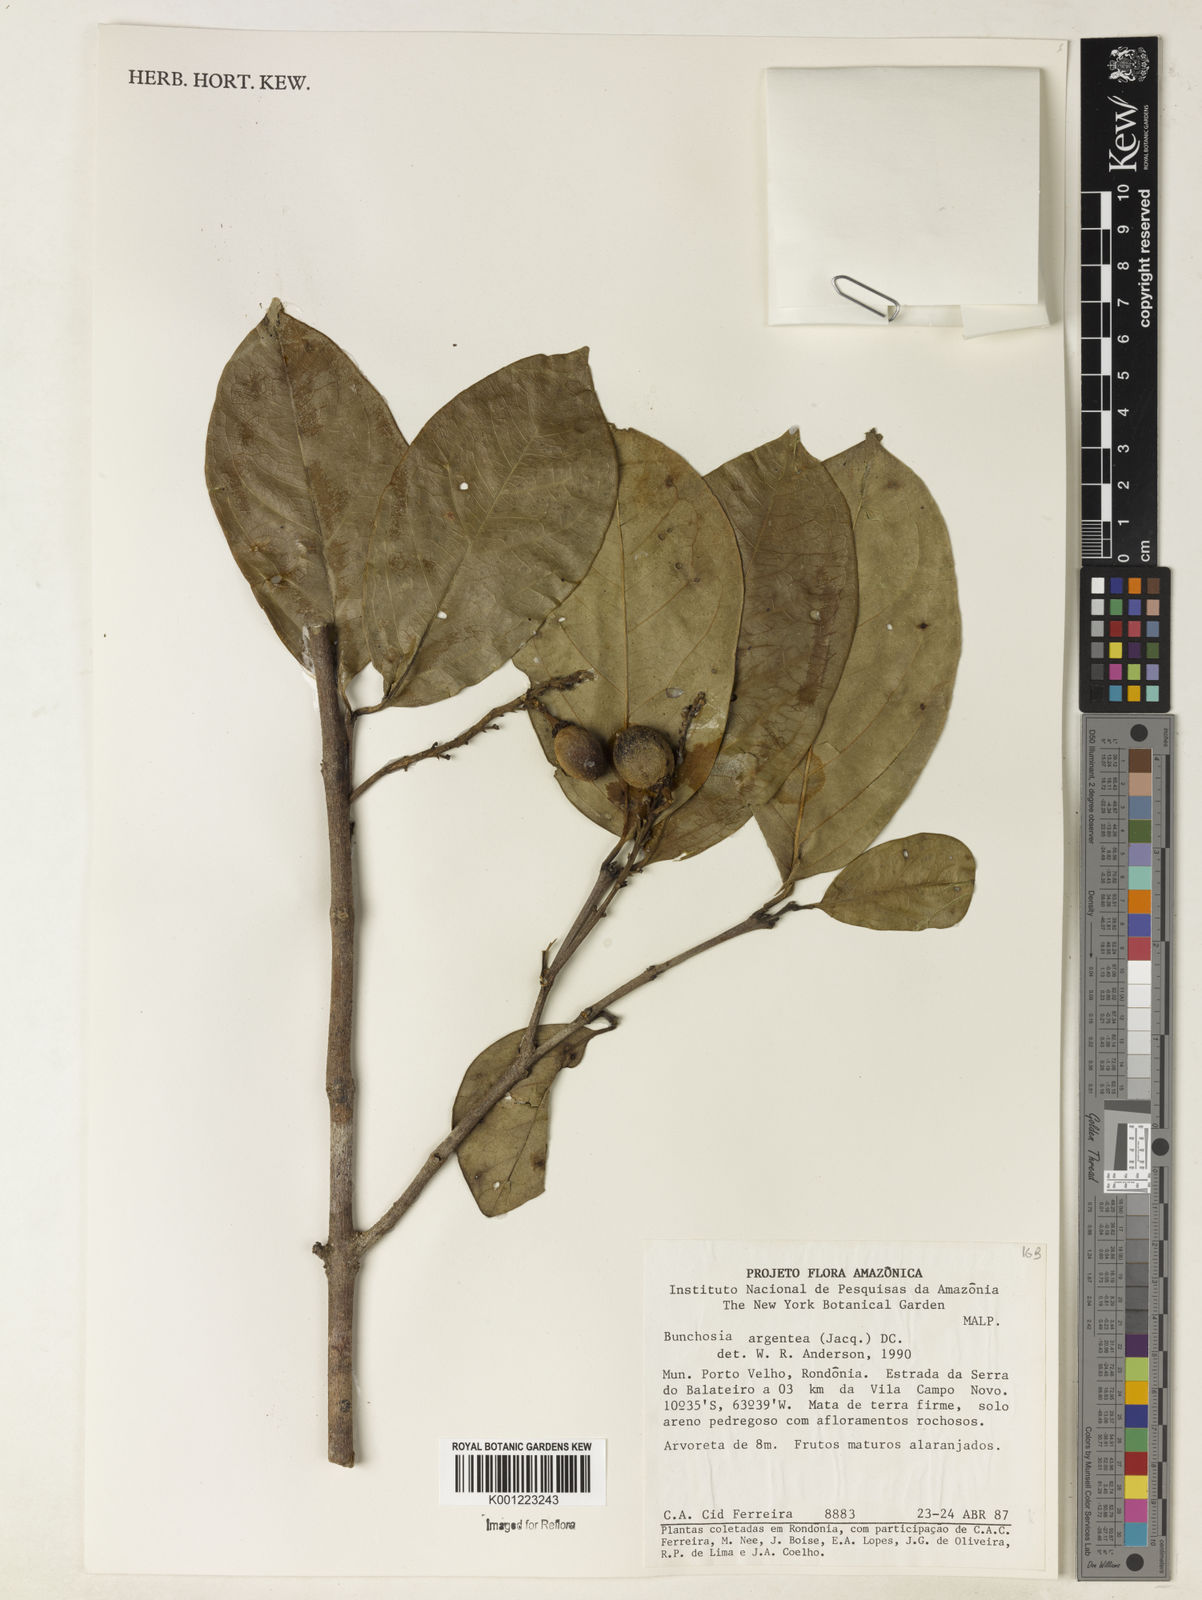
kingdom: Plantae
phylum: Tracheophyta
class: Magnoliopsida
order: Malpighiales
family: Malpighiaceae
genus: Bunchosia
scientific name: Bunchosia argentea
